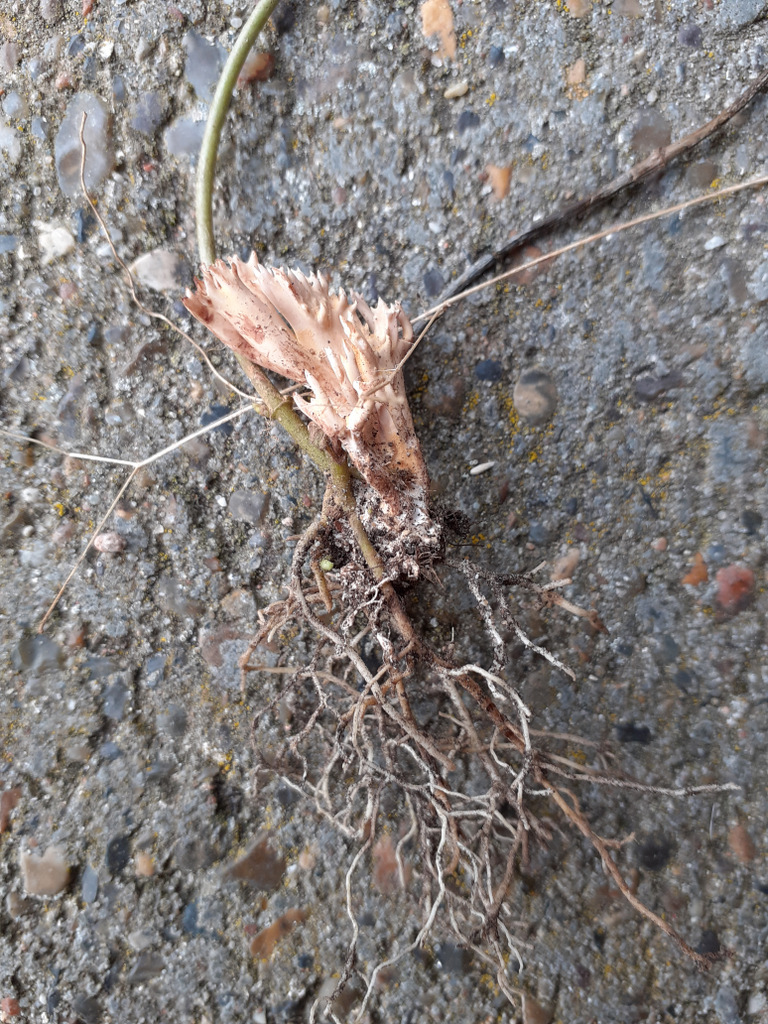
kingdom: Fungi
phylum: Basidiomycota
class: Agaricomycetes
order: Gomphales
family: Gomphaceae
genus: Ramaria
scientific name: Ramaria
